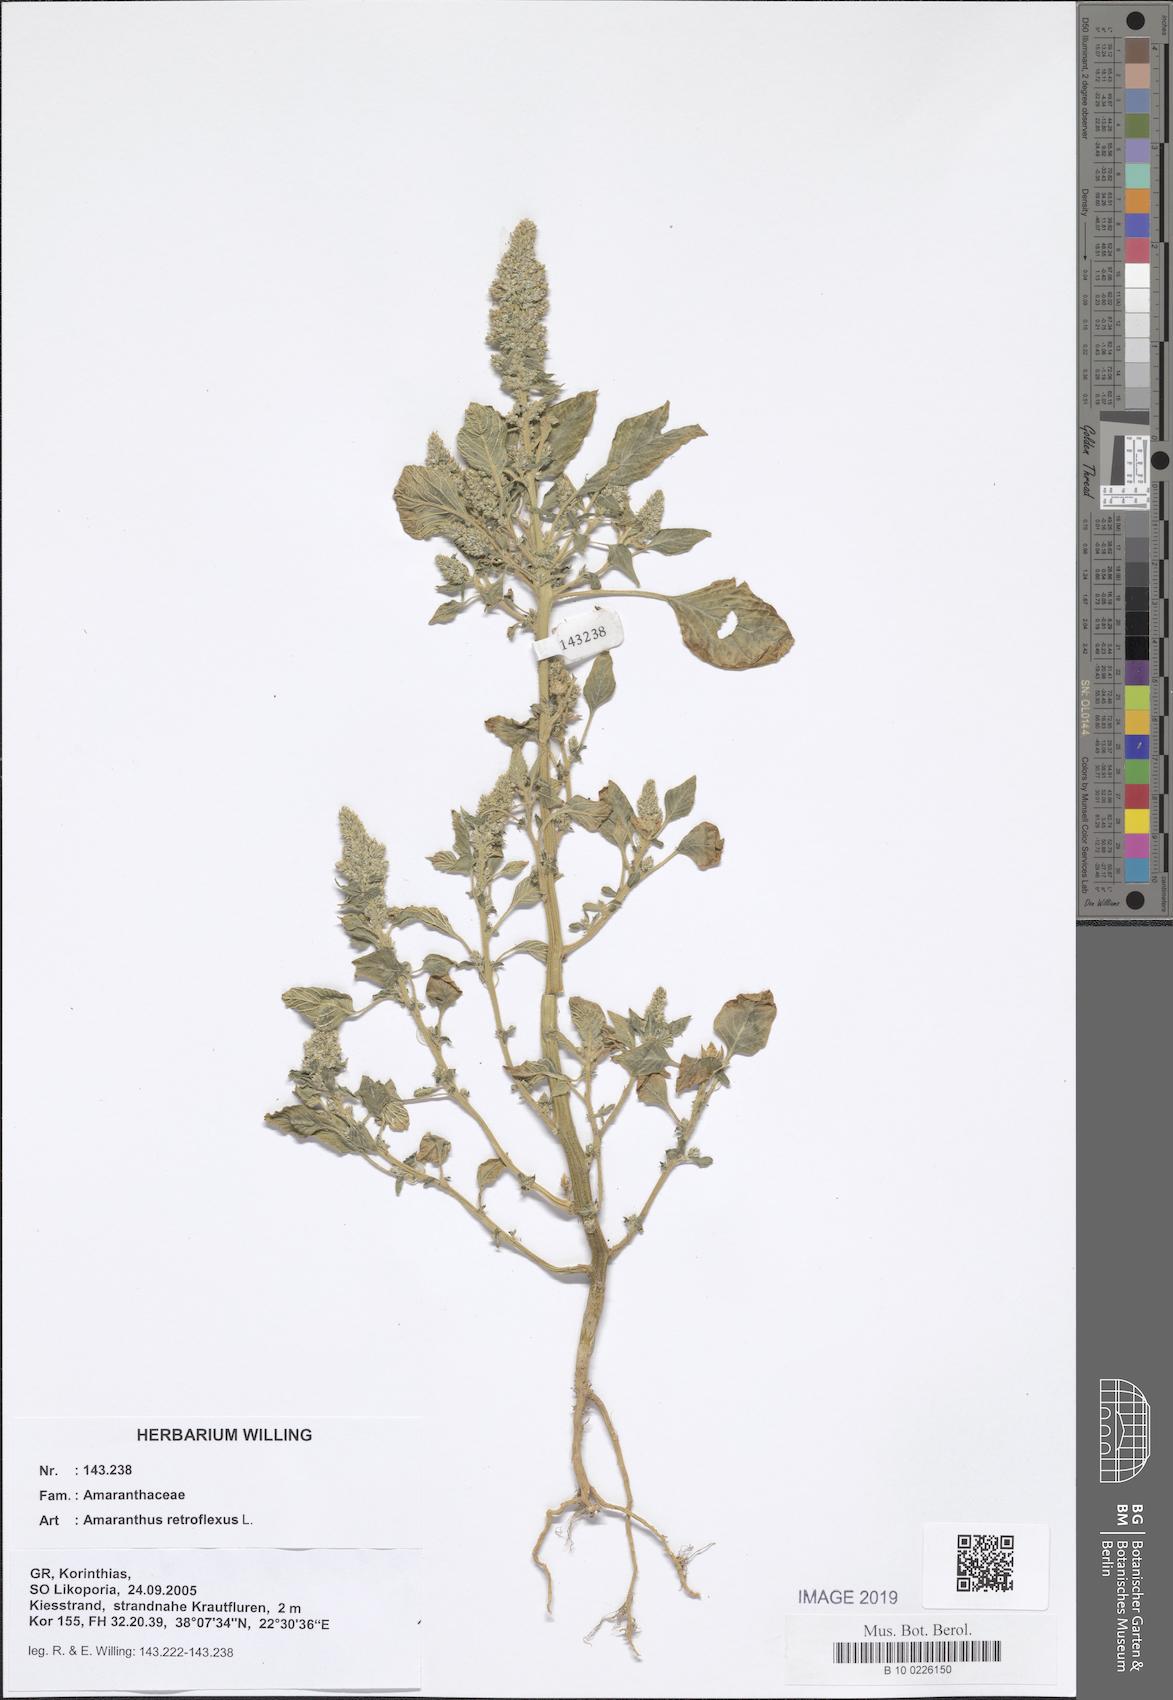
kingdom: Plantae
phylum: Tracheophyta
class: Magnoliopsida
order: Caryophyllales
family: Amaranthaceae
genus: Amaranthus
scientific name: Amaranthus retroflexus
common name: Redroot amaranth
